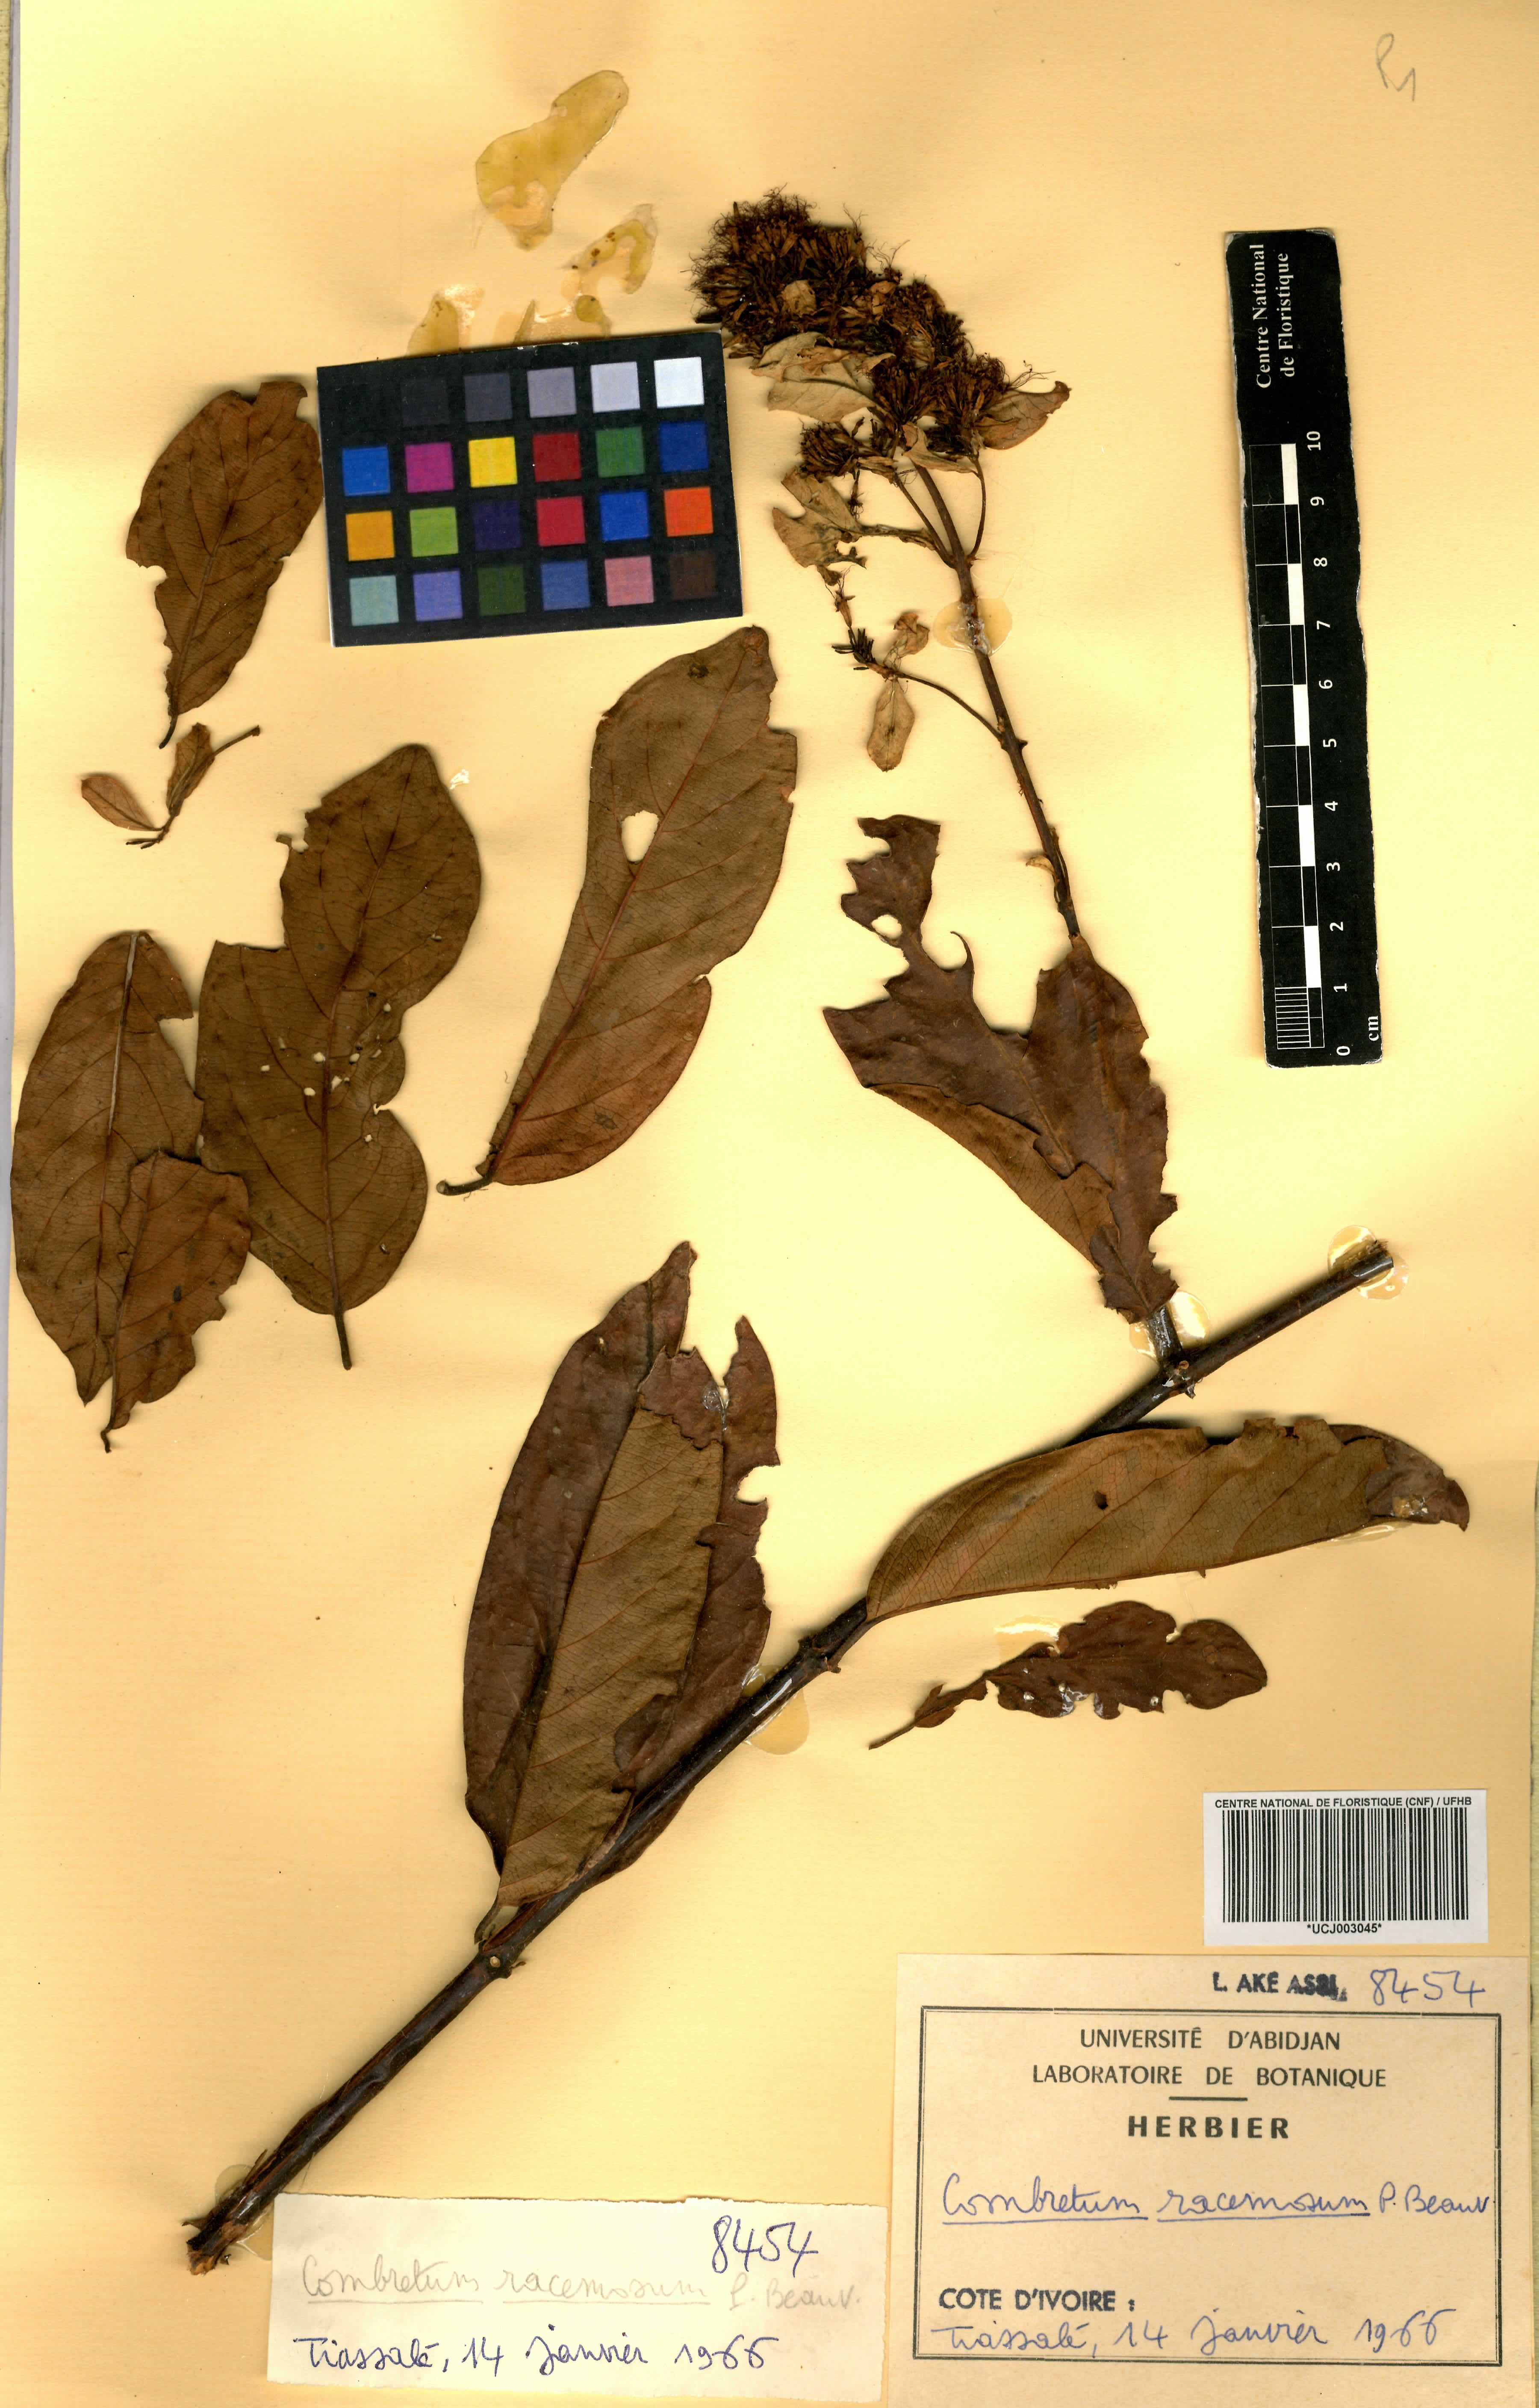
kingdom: Plantae
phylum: Tracheophyta
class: Magnoliopsida
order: Myrtales
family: Combretaceae
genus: Combretum
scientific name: Combretum racemosum
